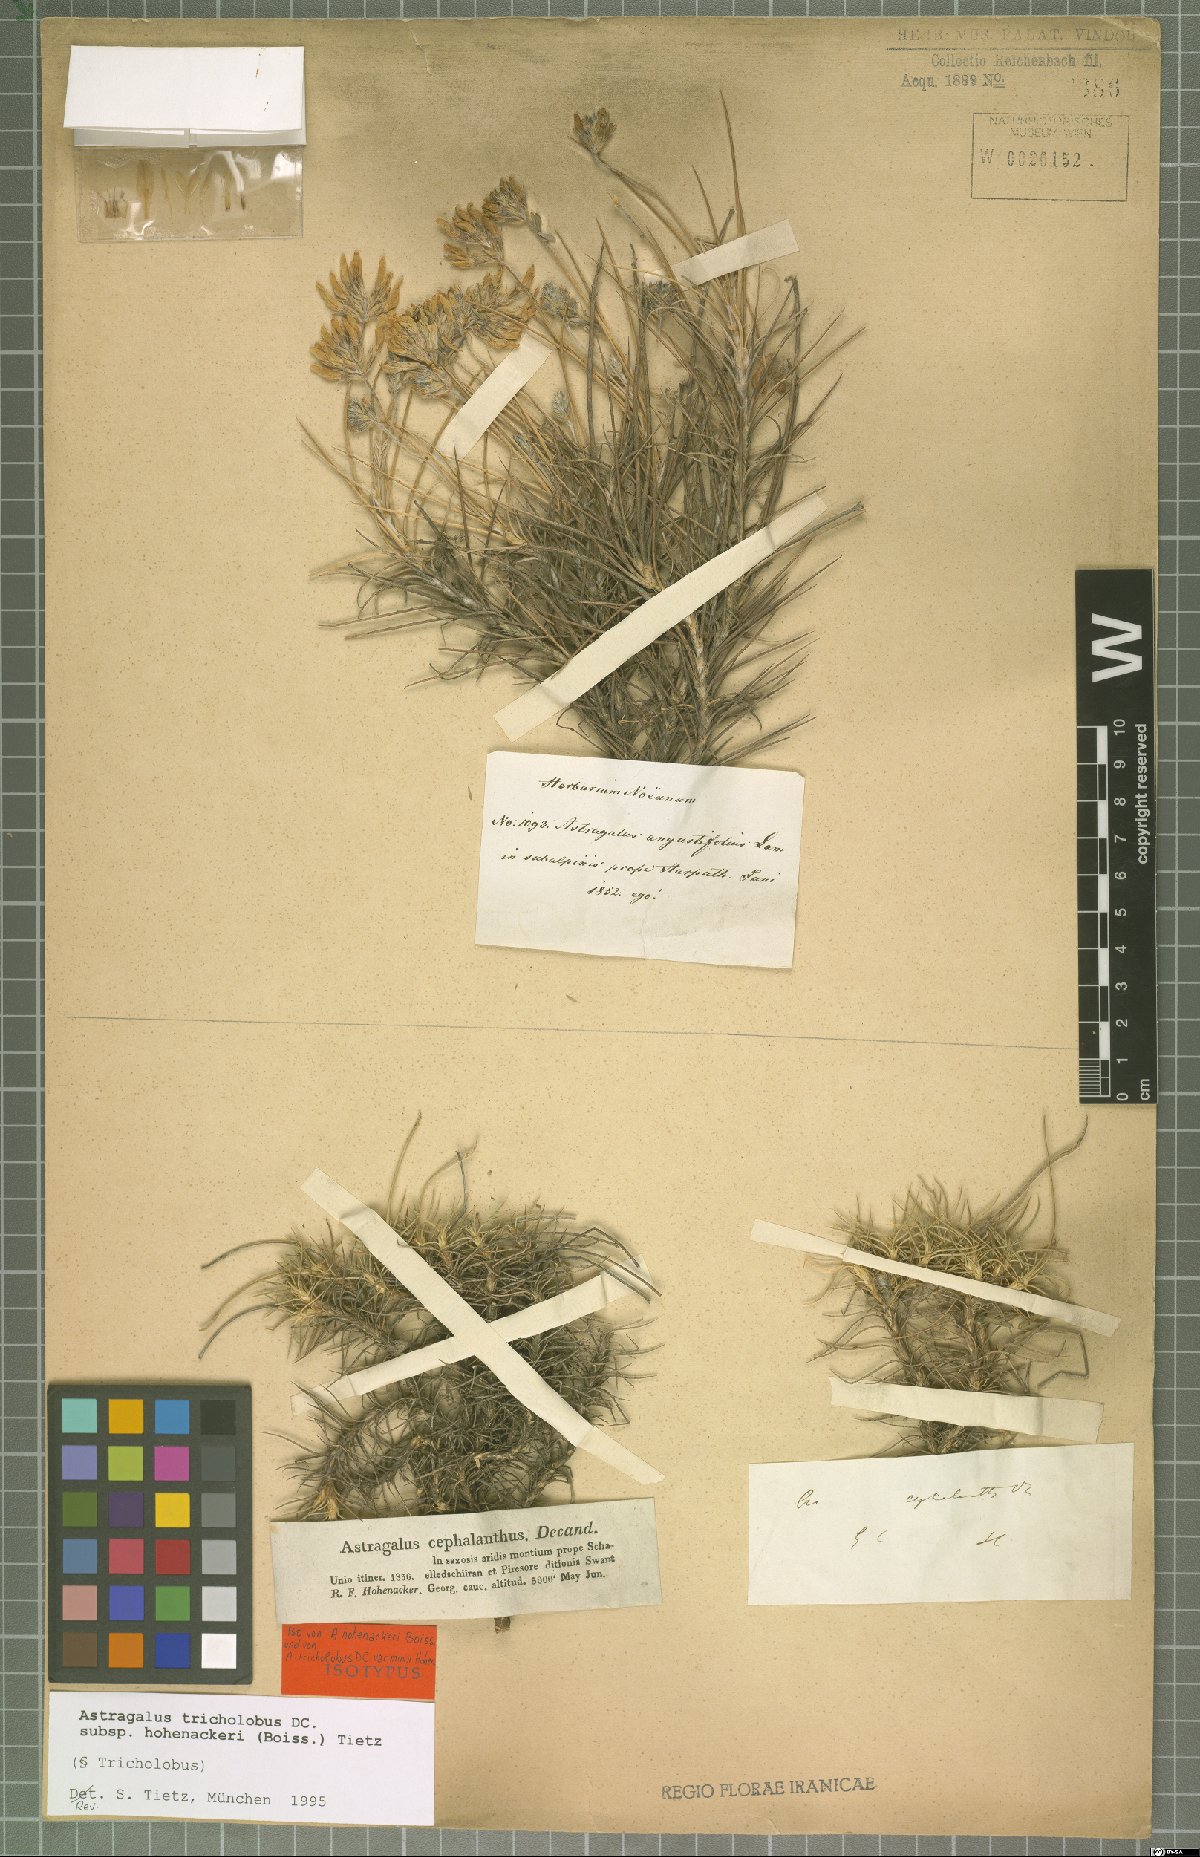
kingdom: Plantae
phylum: Tracheophyta
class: Magnoliopsida
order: Fabales
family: Fabaceae
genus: Astragalus
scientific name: Astragalus hohenackeri
